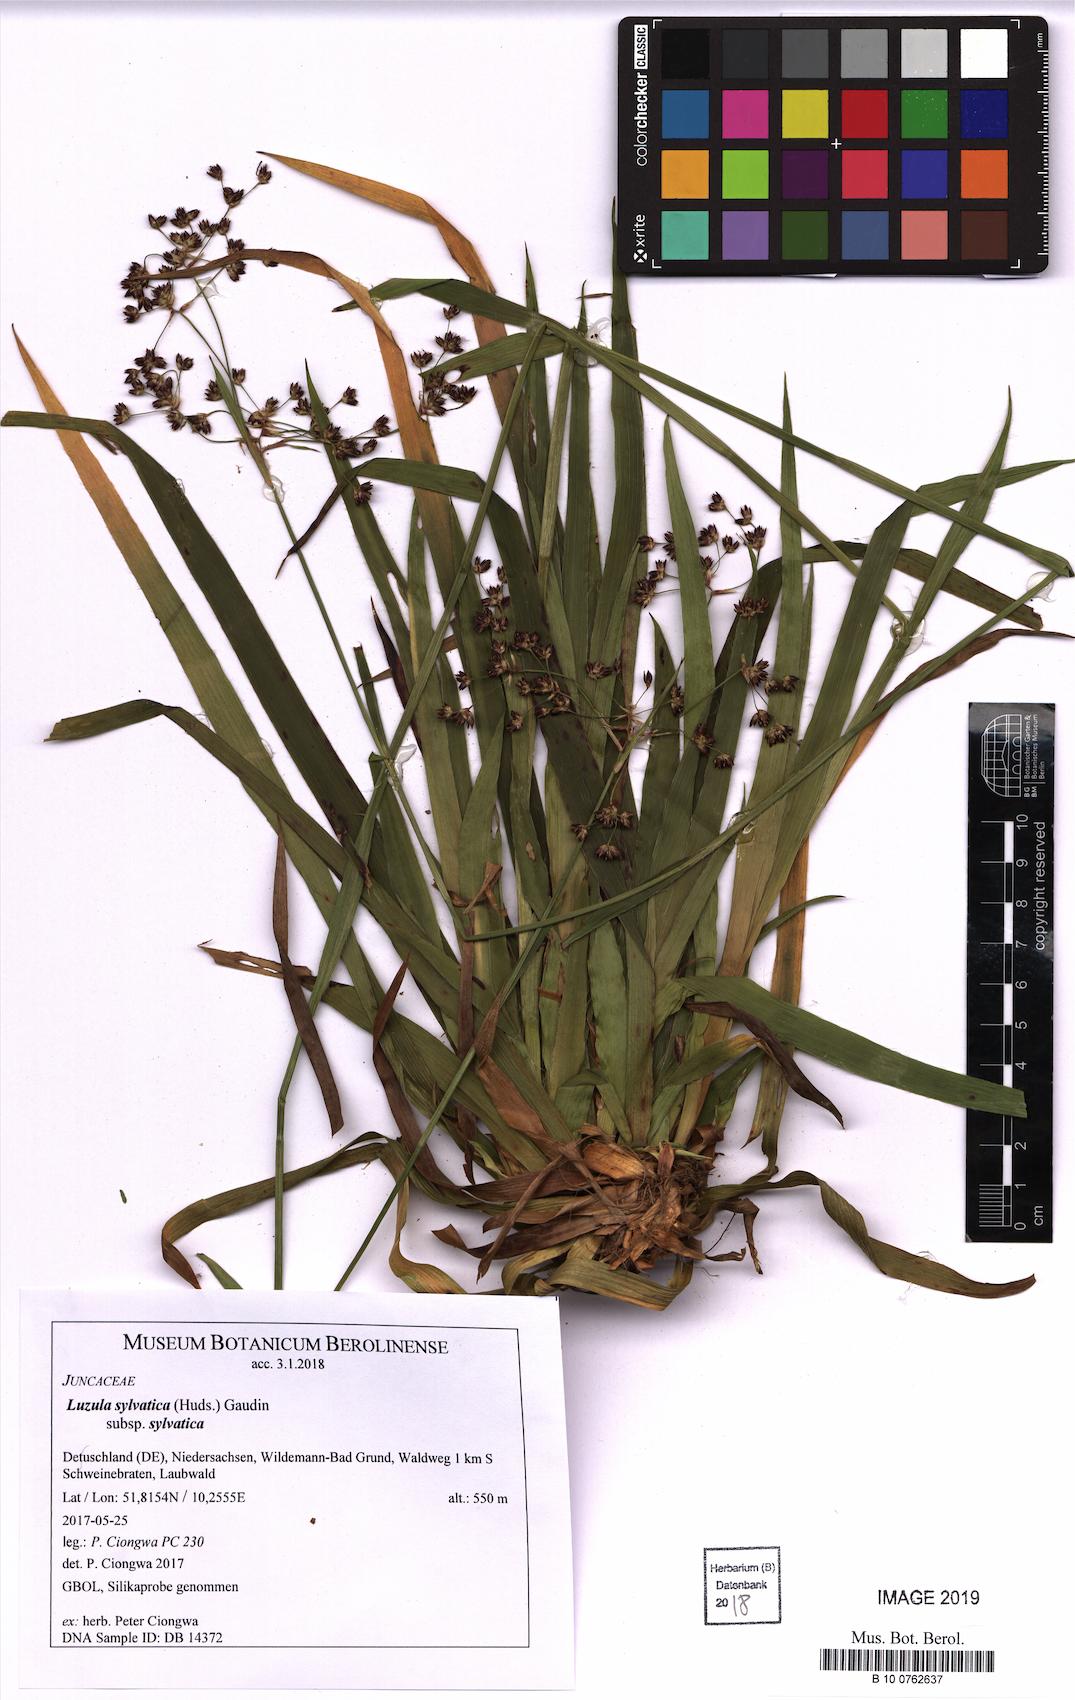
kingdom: Plantae
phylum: Tracheophyta
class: Liliopsida
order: Poales
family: Juncaceae
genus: Luzula
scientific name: Luzula sylvatica
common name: Great wood-rush
